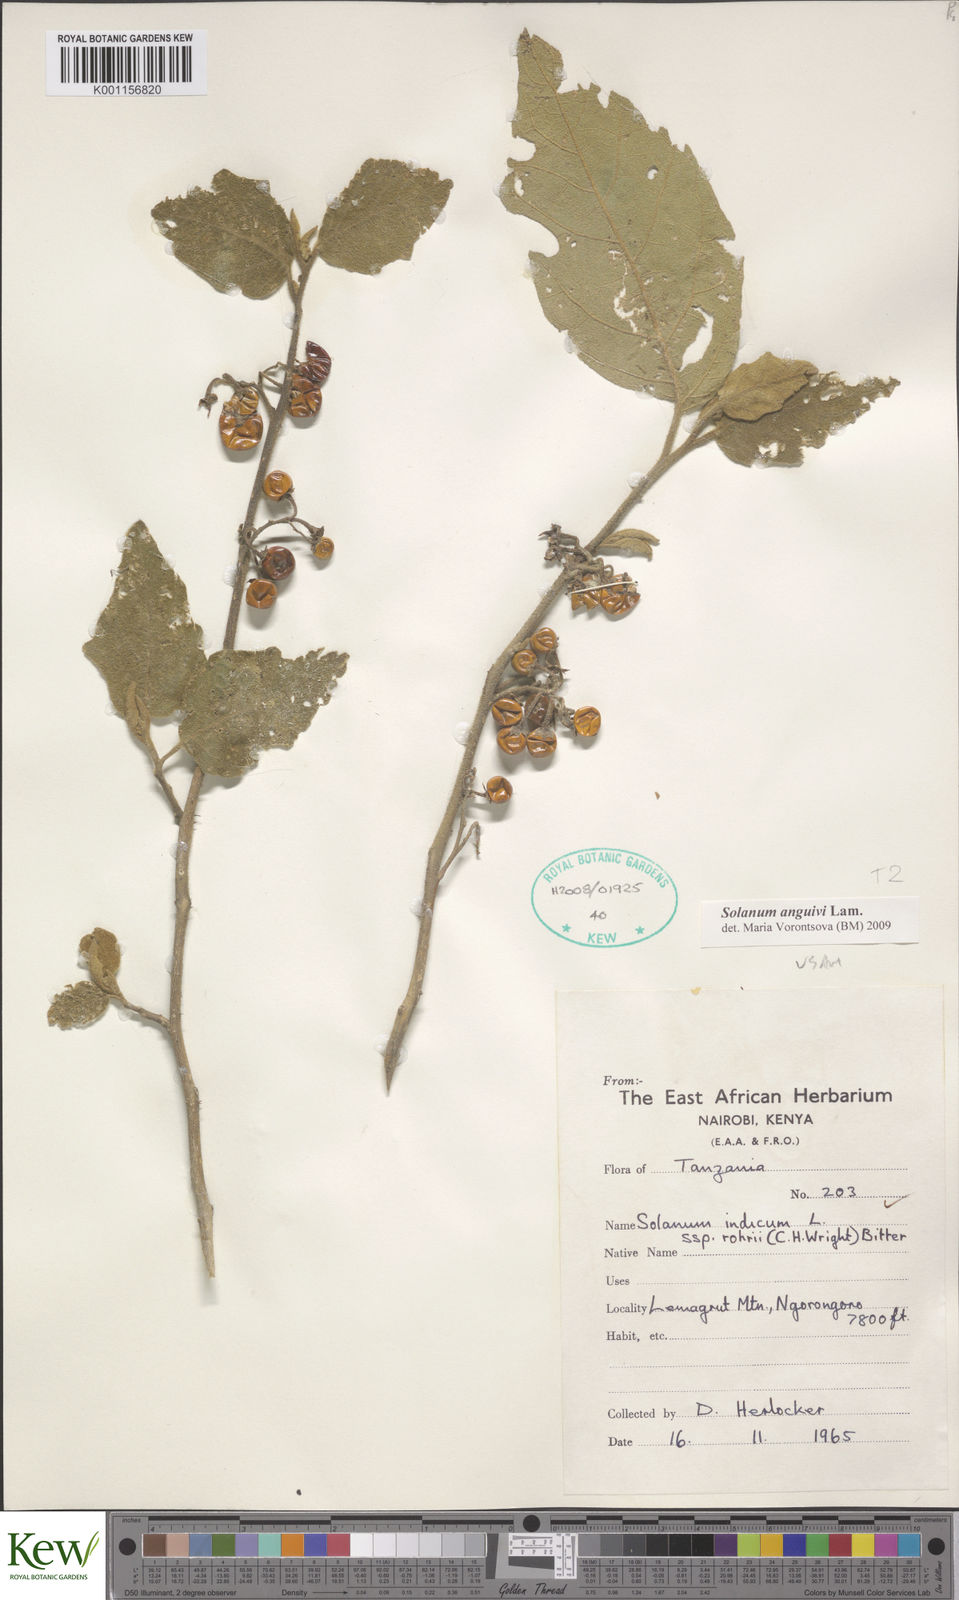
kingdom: Plantae
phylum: Tracheophyta
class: Magnoliopsida
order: Solanales
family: Solanaceae
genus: Solanum
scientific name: Solanum anguivi
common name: Forest bitterberry
